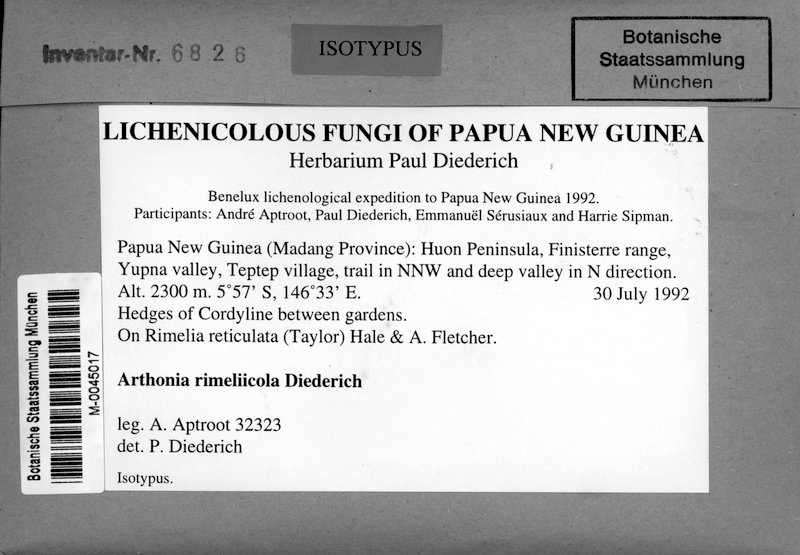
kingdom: Fungi
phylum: Ascomycota
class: Arthoniomycetes
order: Arthoniales
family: Arthoniaceae
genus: Synarthonia
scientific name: Synarthonia rimeliicola
